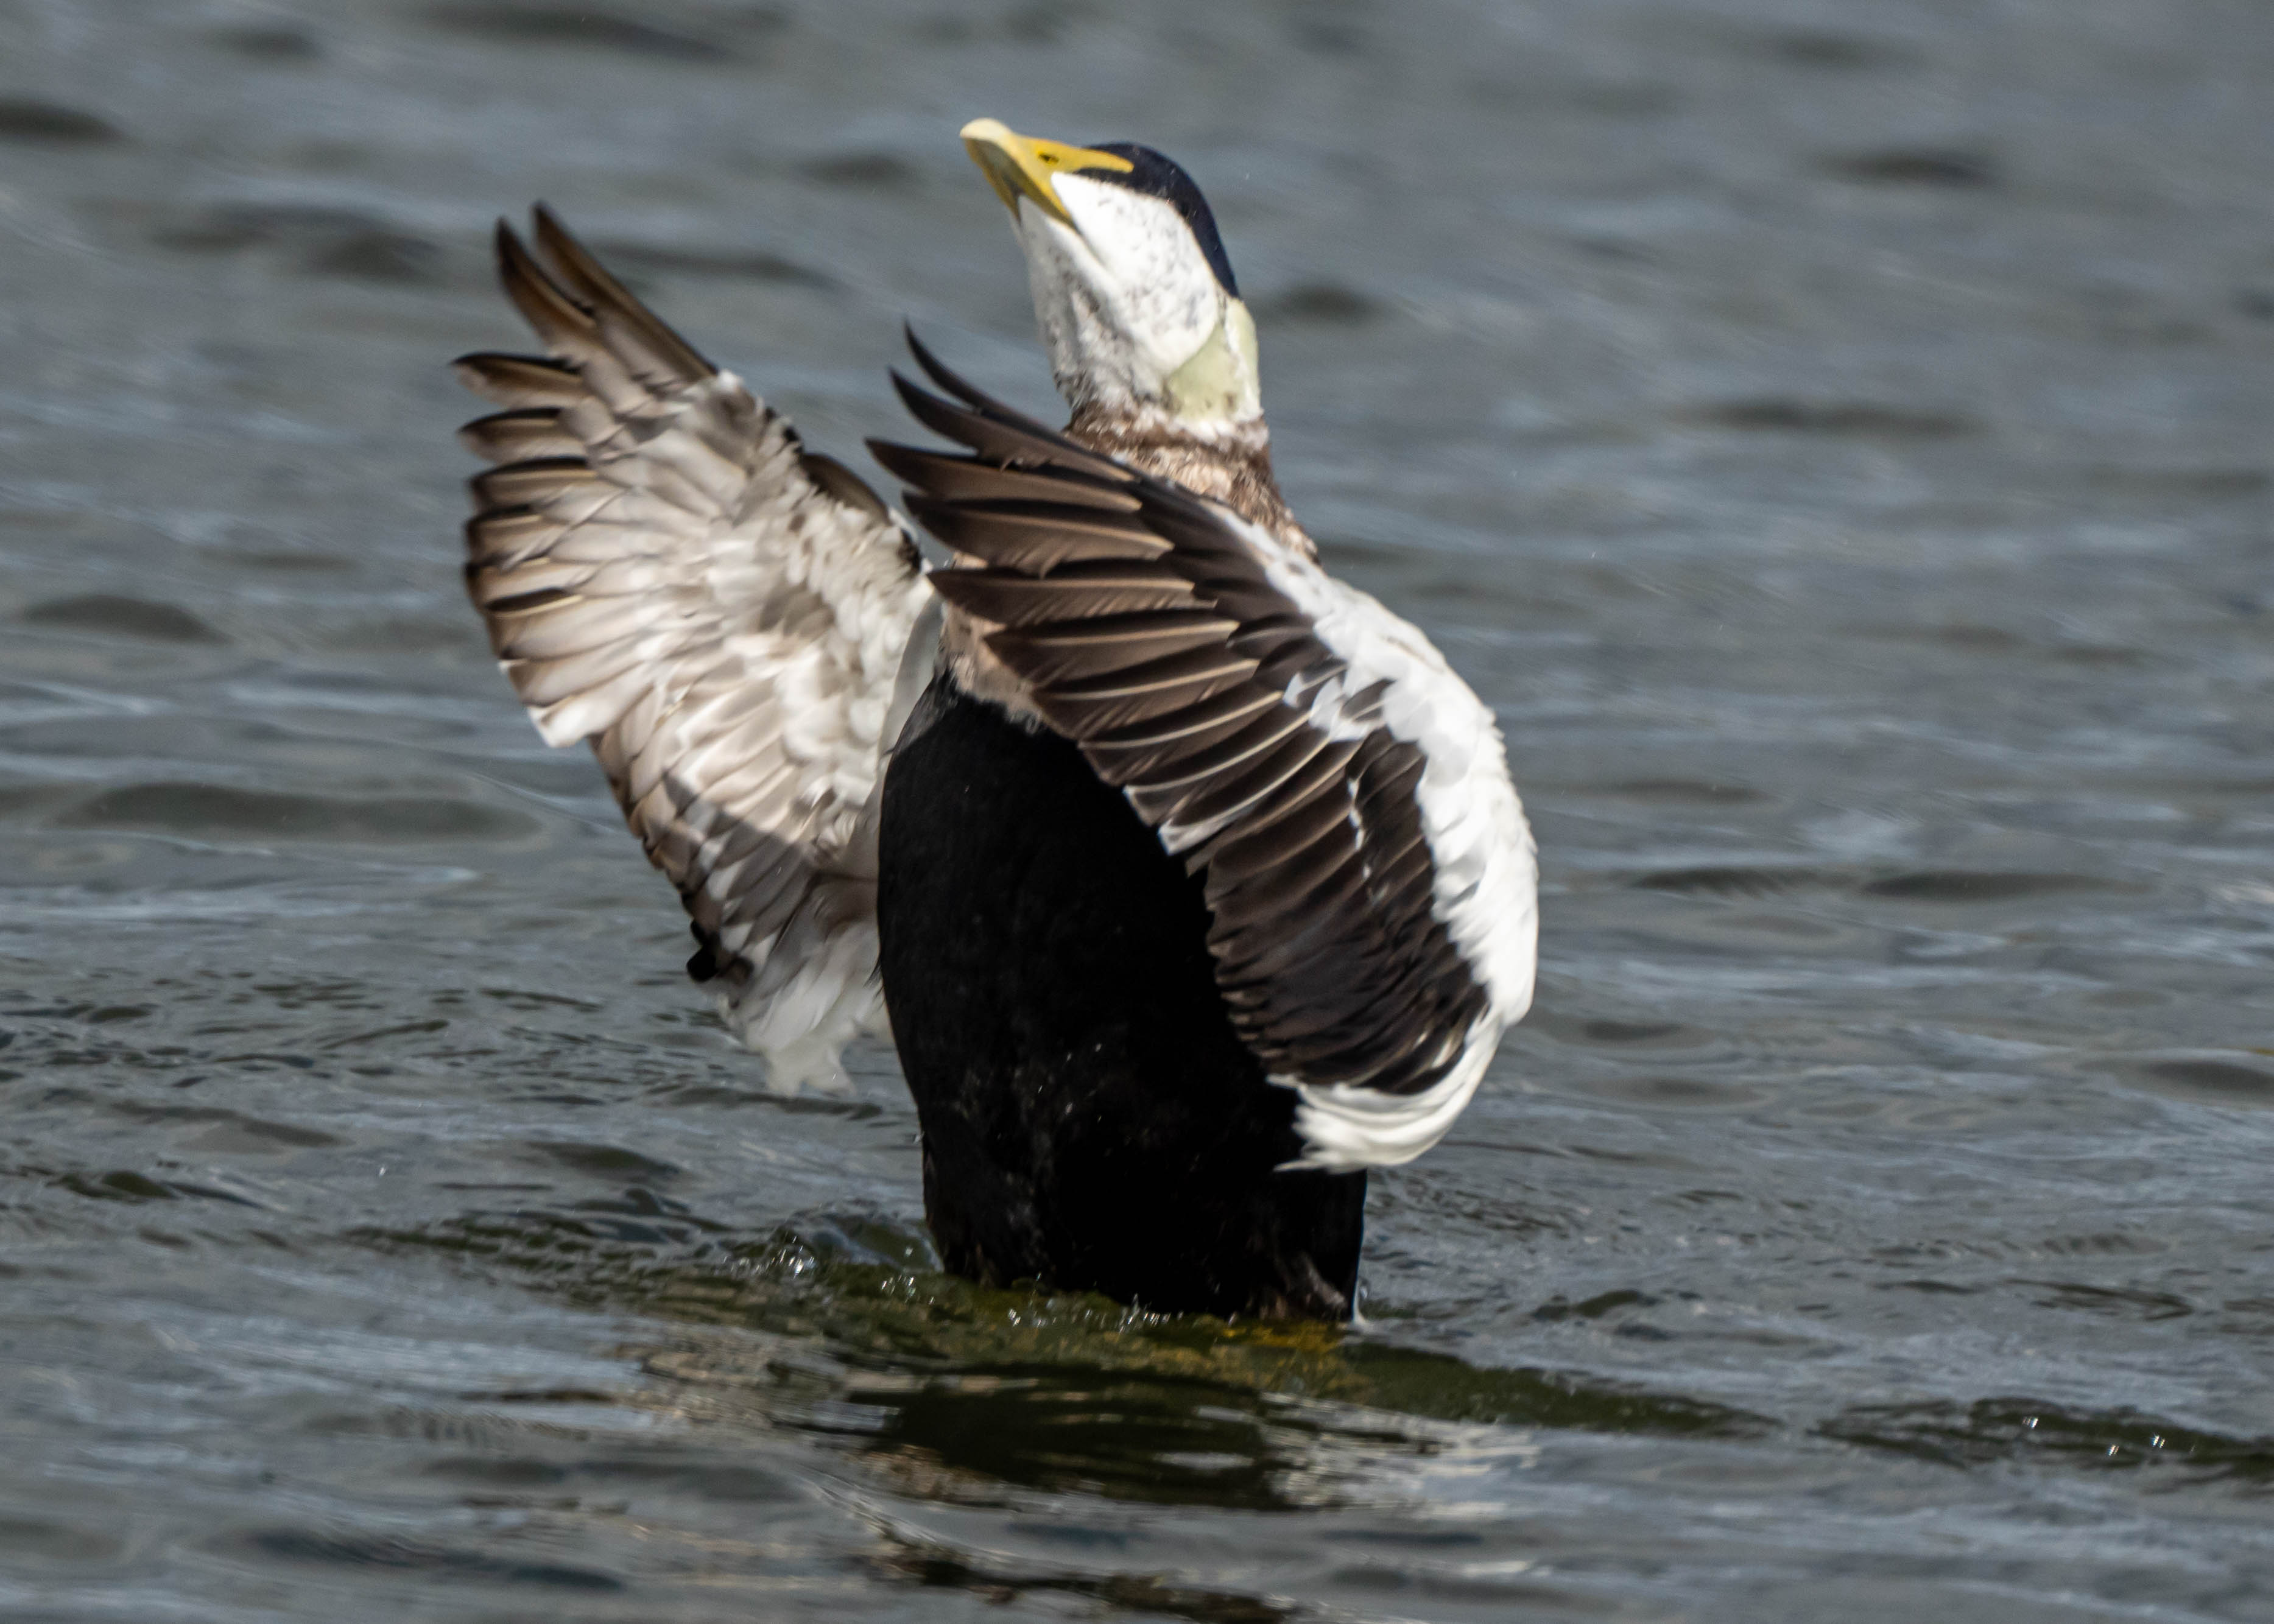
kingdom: Animalia
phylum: Chordata
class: Aves
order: Anseriformes
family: Anatidae
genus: Somateria
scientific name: Somateria mollissima
